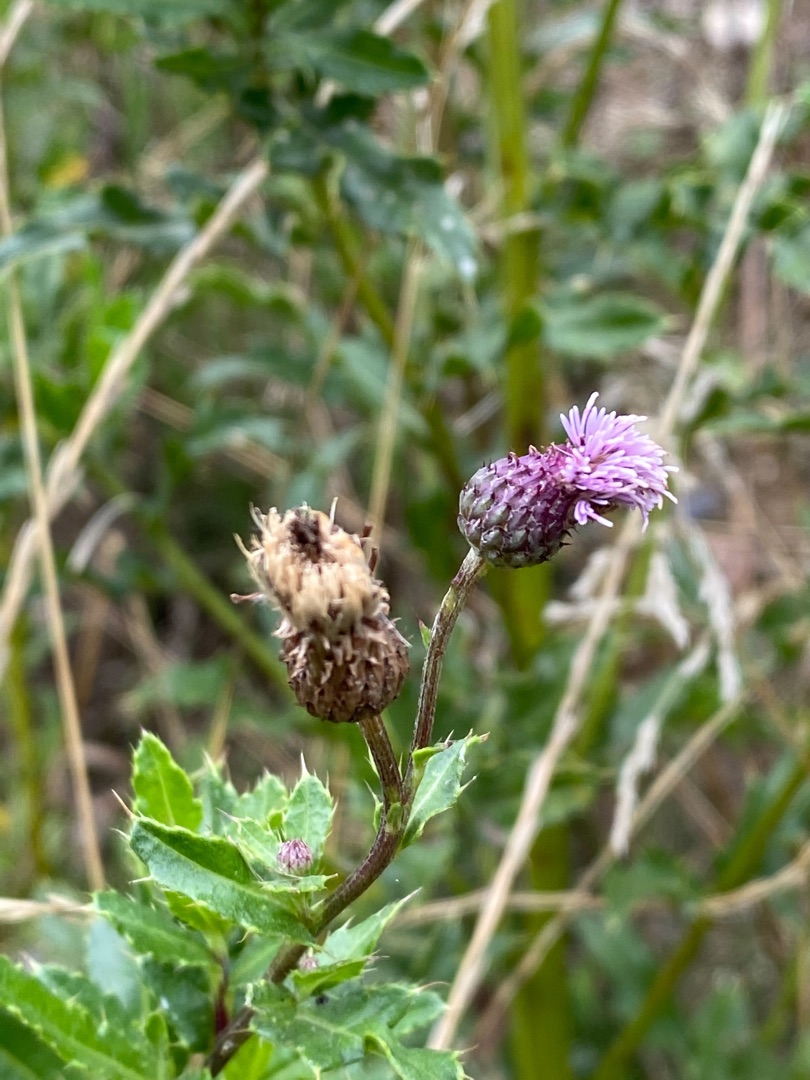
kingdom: Plantae
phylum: Tracheophyta
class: Magnoliopsida
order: Asterales
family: Asteraceae
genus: Cirsium
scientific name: Cirsium arvense
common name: Ager-tidsel
